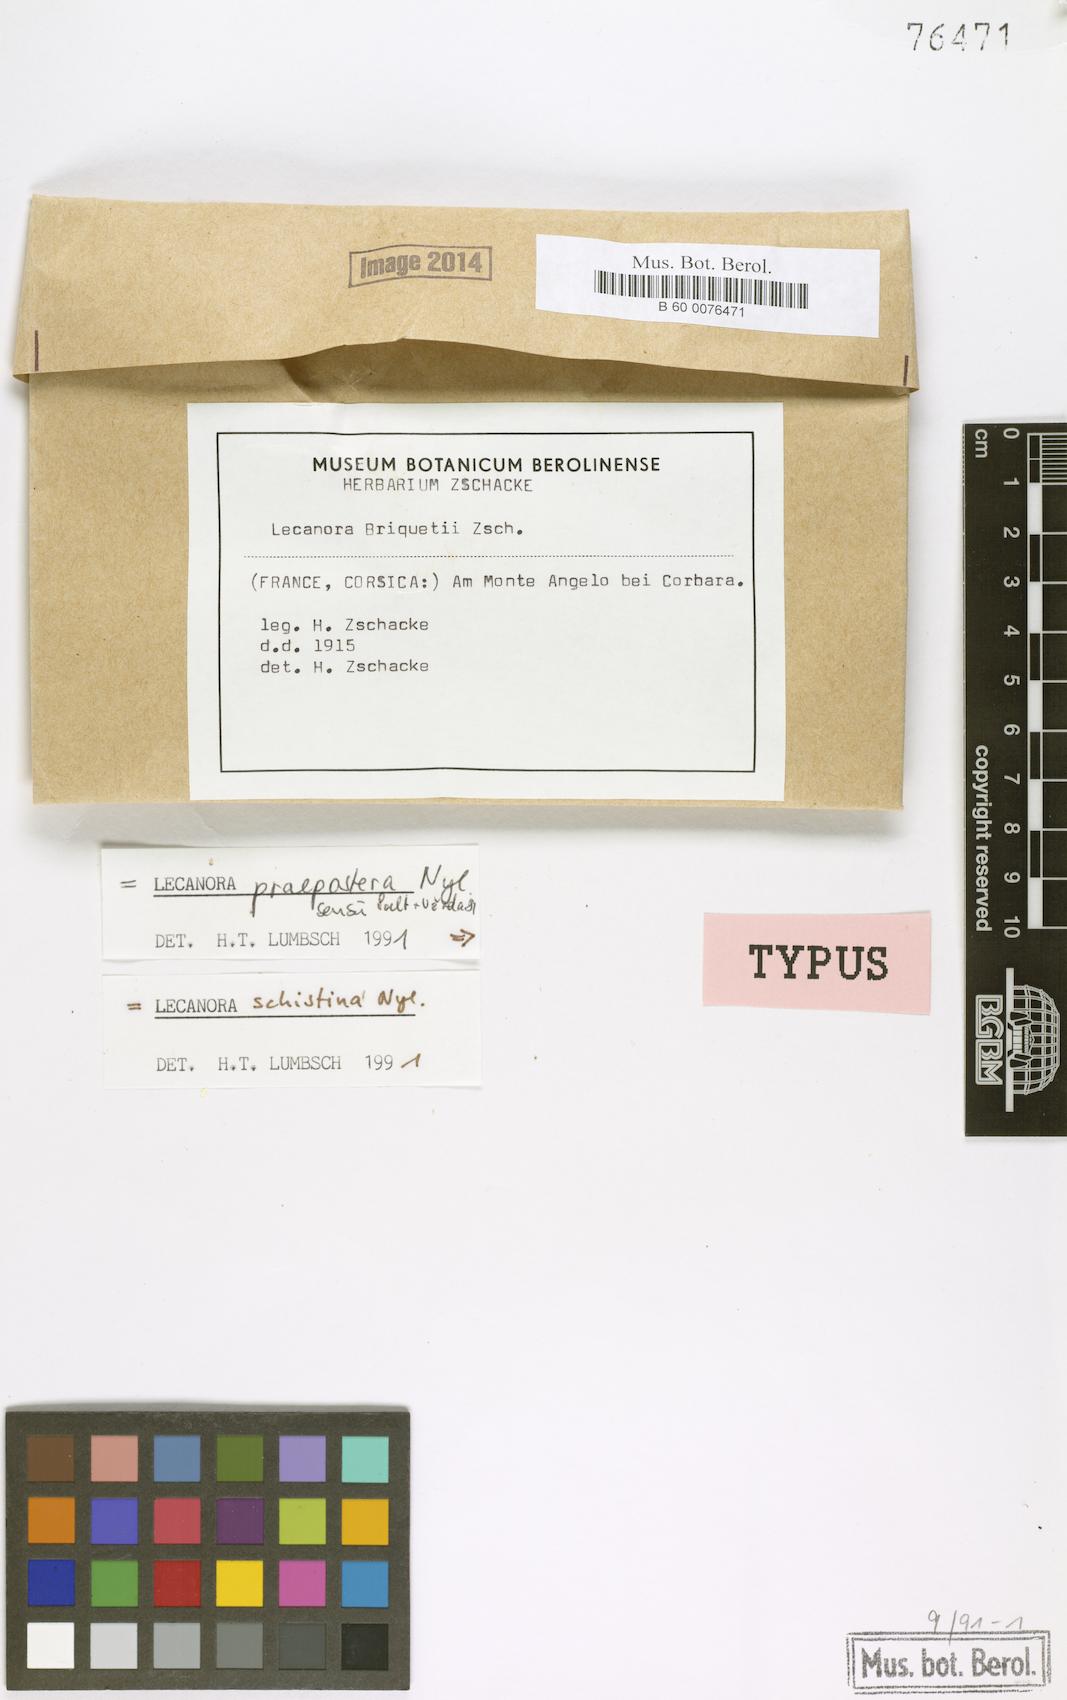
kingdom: Fungi
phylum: Ascomycota
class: Lecanoromycetes
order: Lecanorales
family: Lecanoraceae
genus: Lecanora
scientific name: Lecanora sardoa
